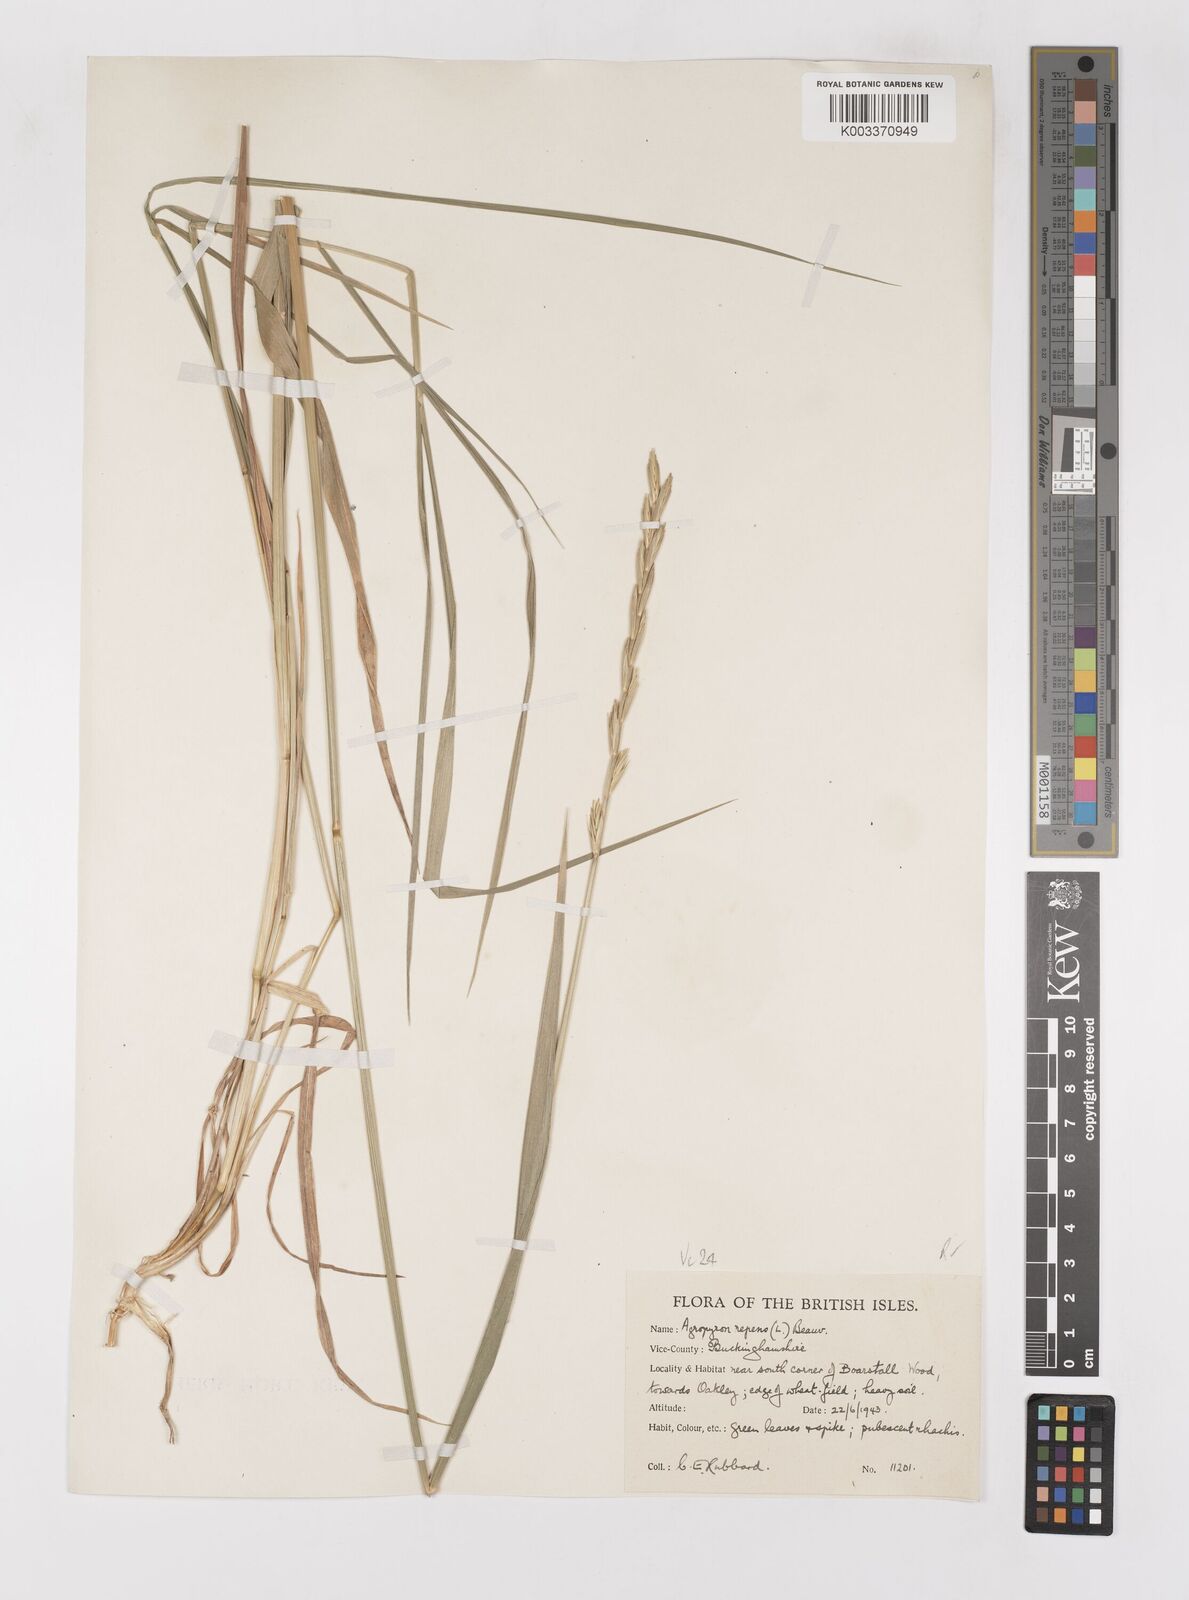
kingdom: Plantae
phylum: Tracheophyta
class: Liliopsida
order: Poales
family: Poaceae
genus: Elymus
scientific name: Elymus repens
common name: Quackgrass
